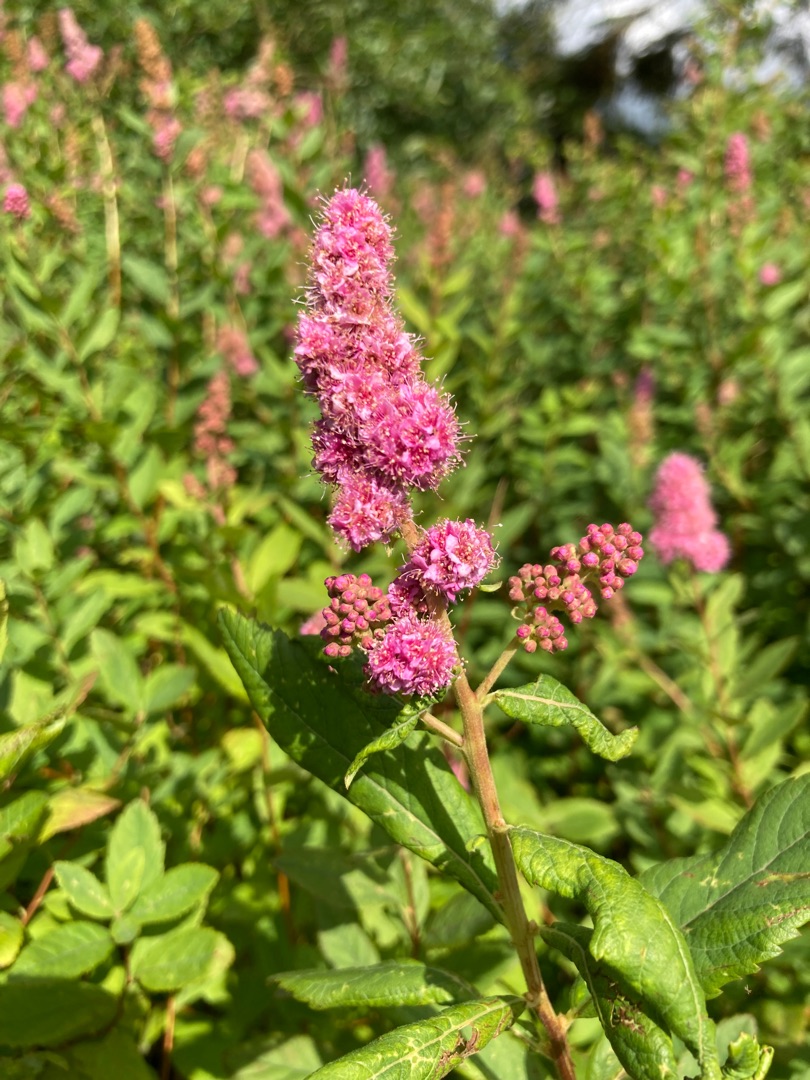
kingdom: Plantae
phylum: Tracheophyta
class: Magnoliopsida
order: Rosales
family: Rosaceae
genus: Spiraea
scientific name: Spiraea
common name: Spiræaslægten
